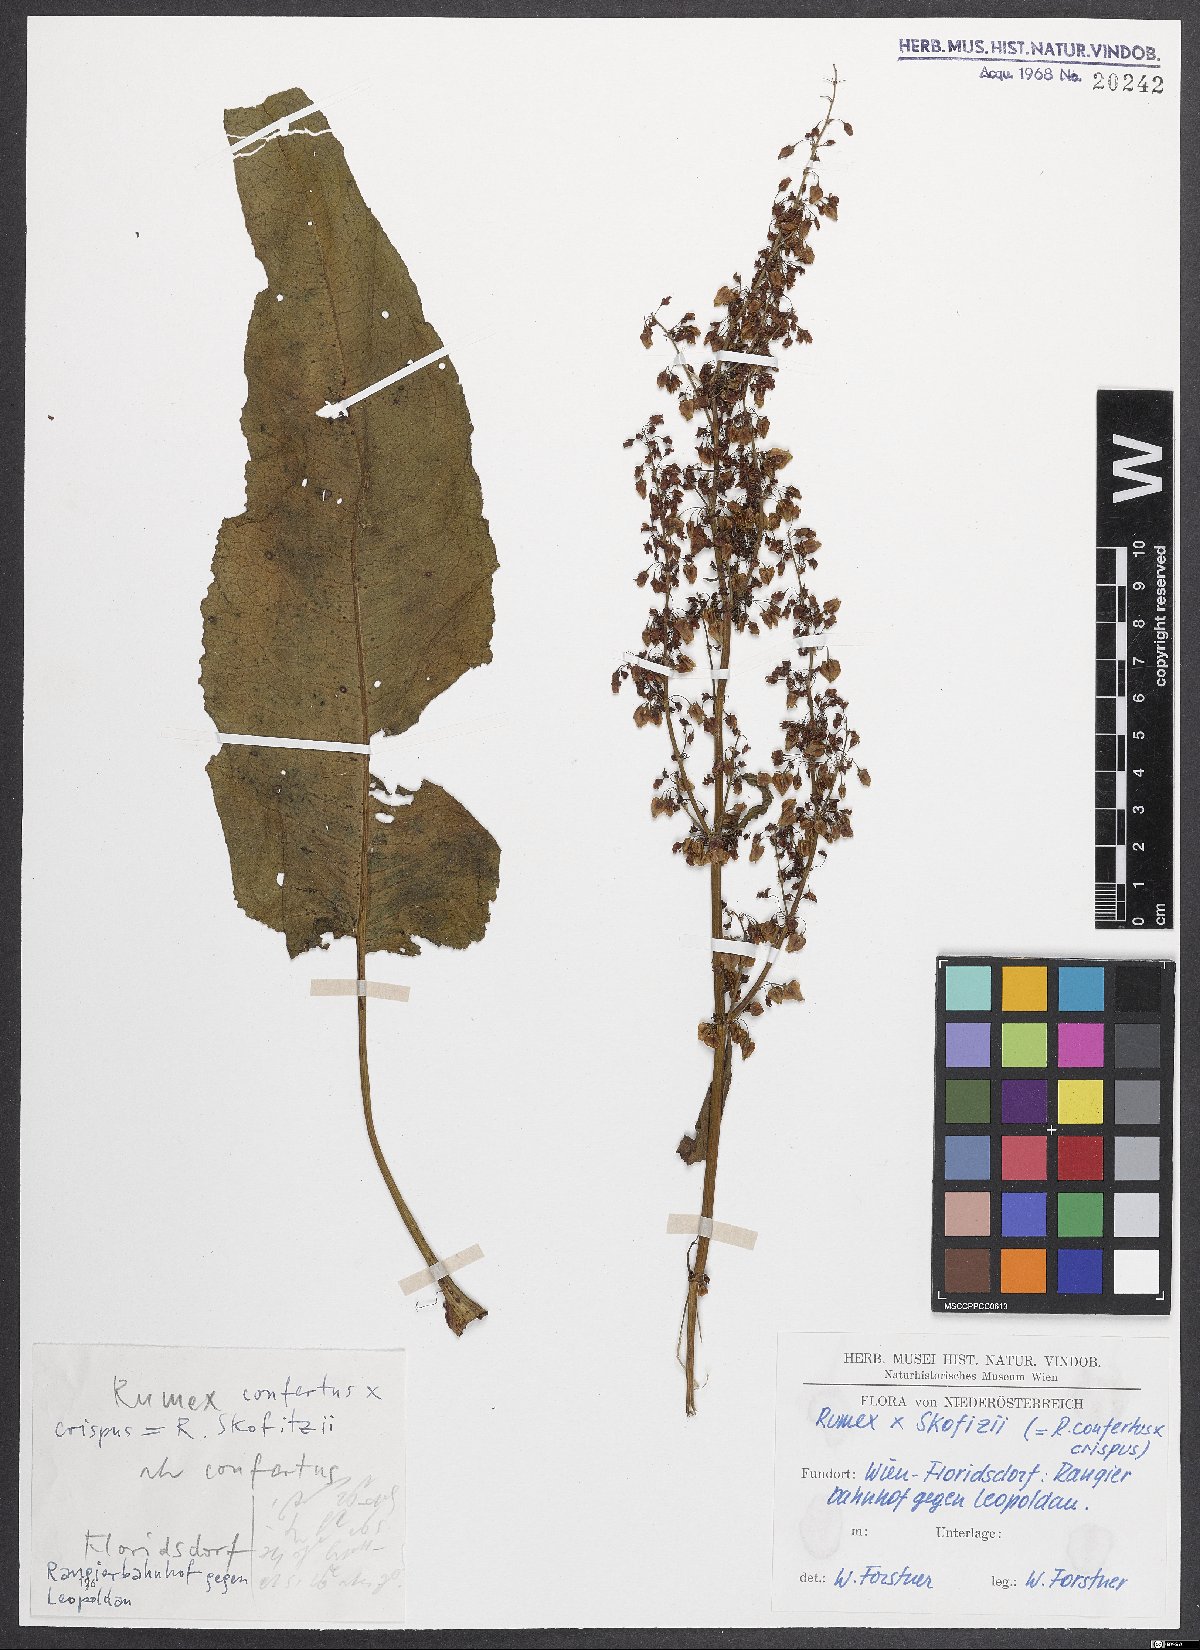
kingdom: Plantae
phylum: Tracheophyta
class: Magnoliopsida
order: Caryophyllales
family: Polygonaceae
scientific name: Polygonaceae
